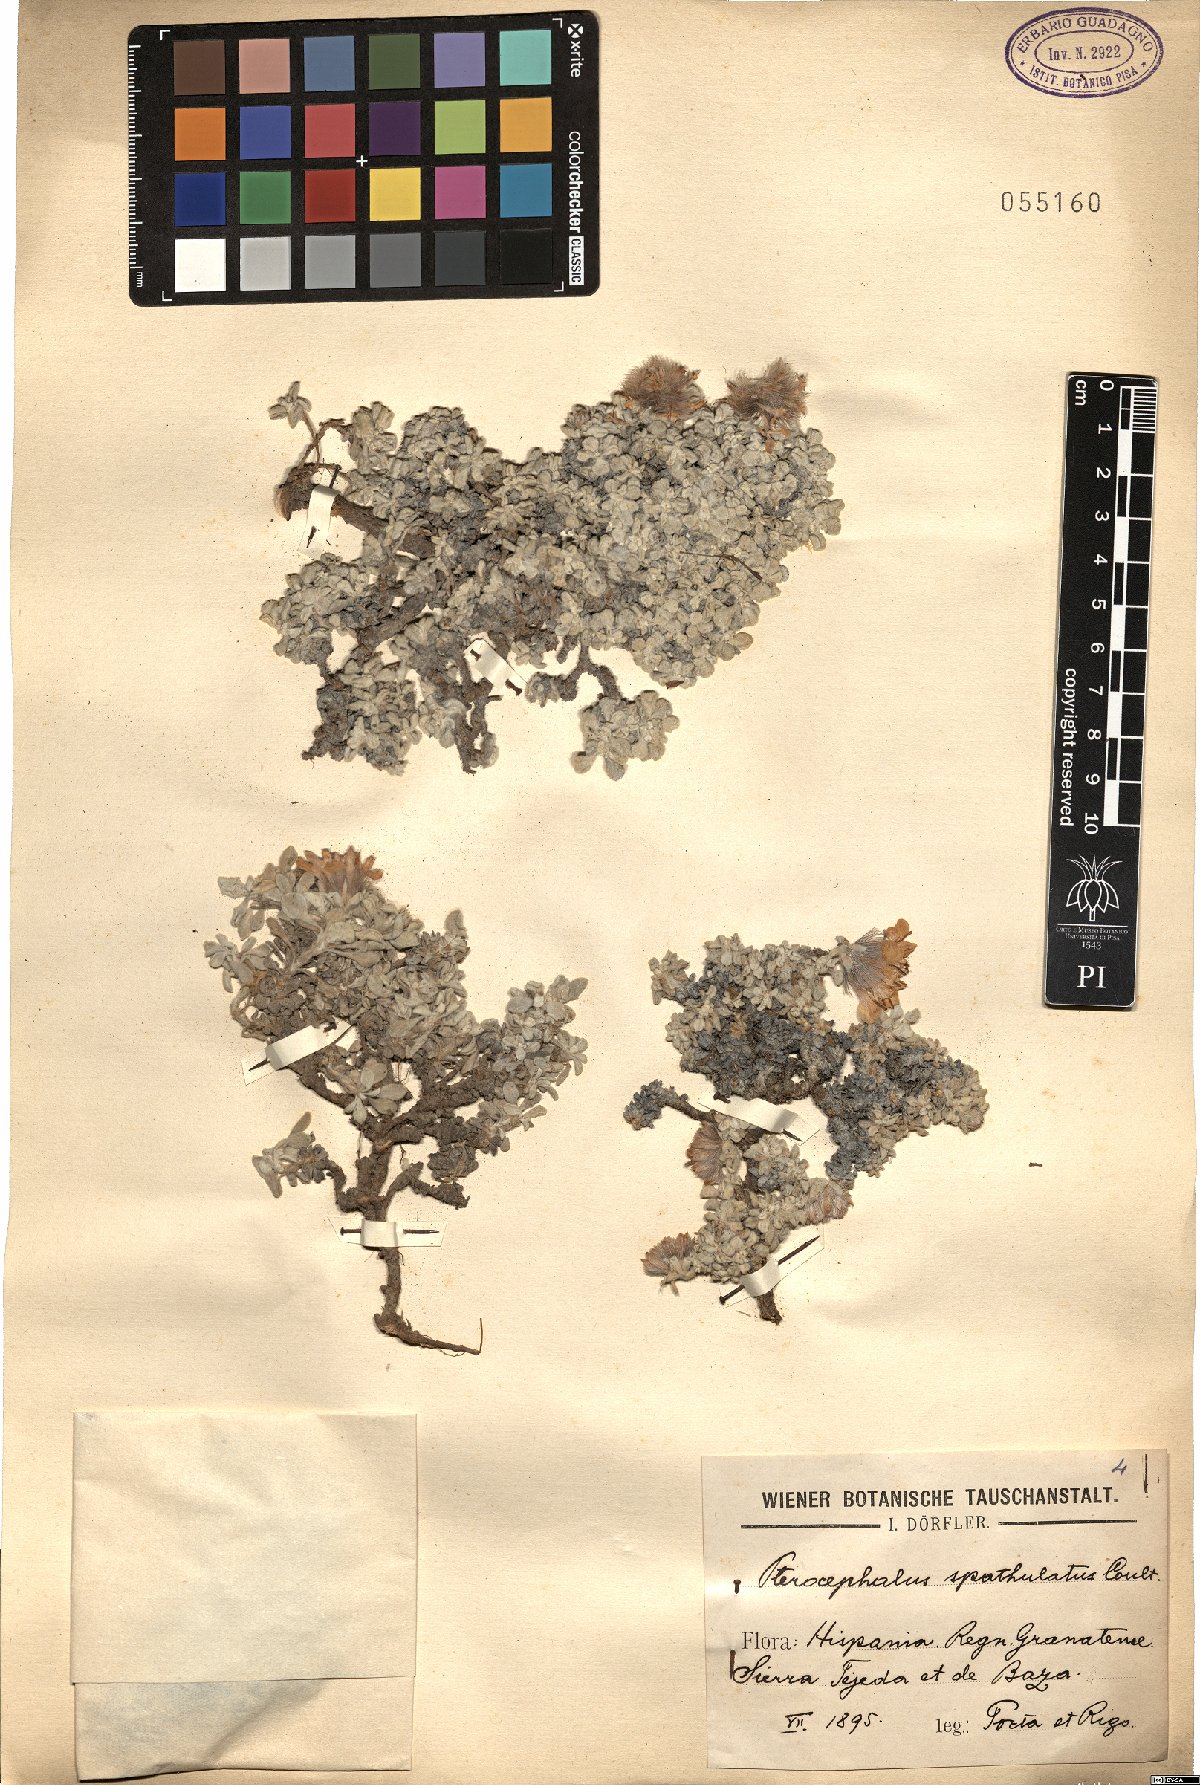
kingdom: Plantae
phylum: Tracheophyta
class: Magnoliopsida
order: Dipsacales
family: Caprifoliaceae
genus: Pterocephalus
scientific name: Pterocephalus spathulatus
